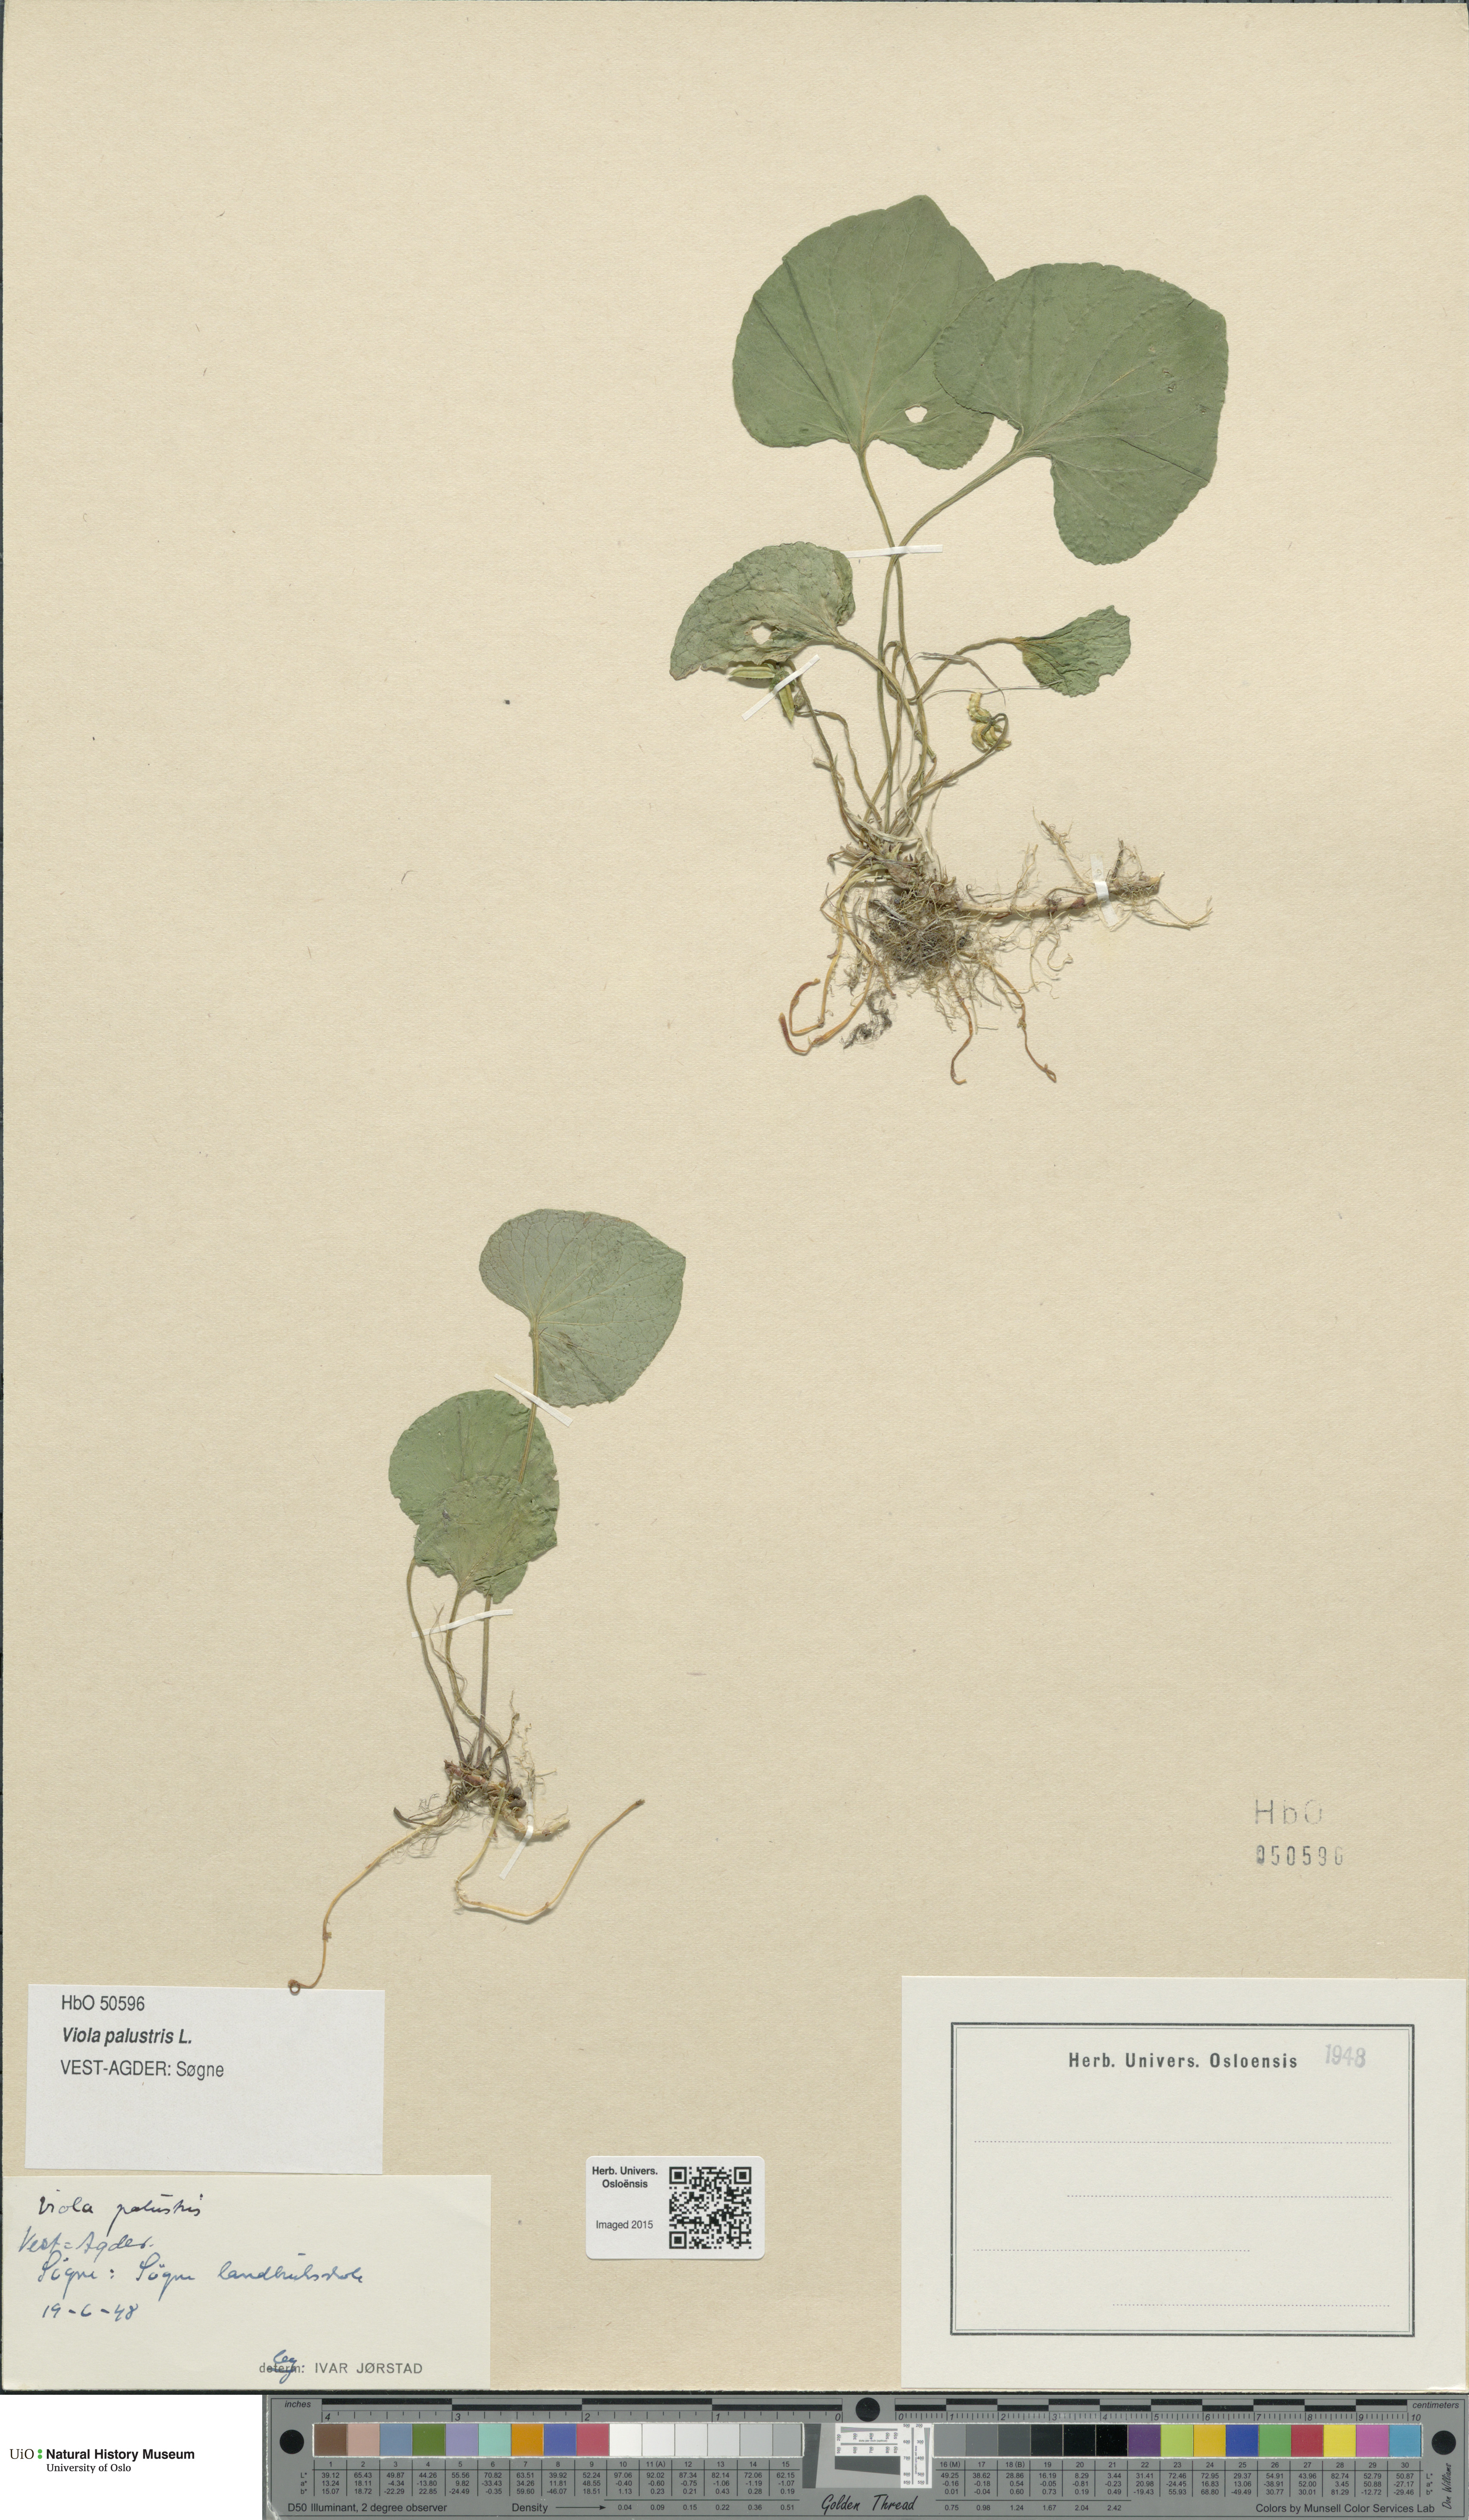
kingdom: Plantae
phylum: Tracheophyta
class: Magnoliopsida
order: Malpighiales
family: Violaceae
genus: Viola
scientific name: Viola palustris
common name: Marsh violet
